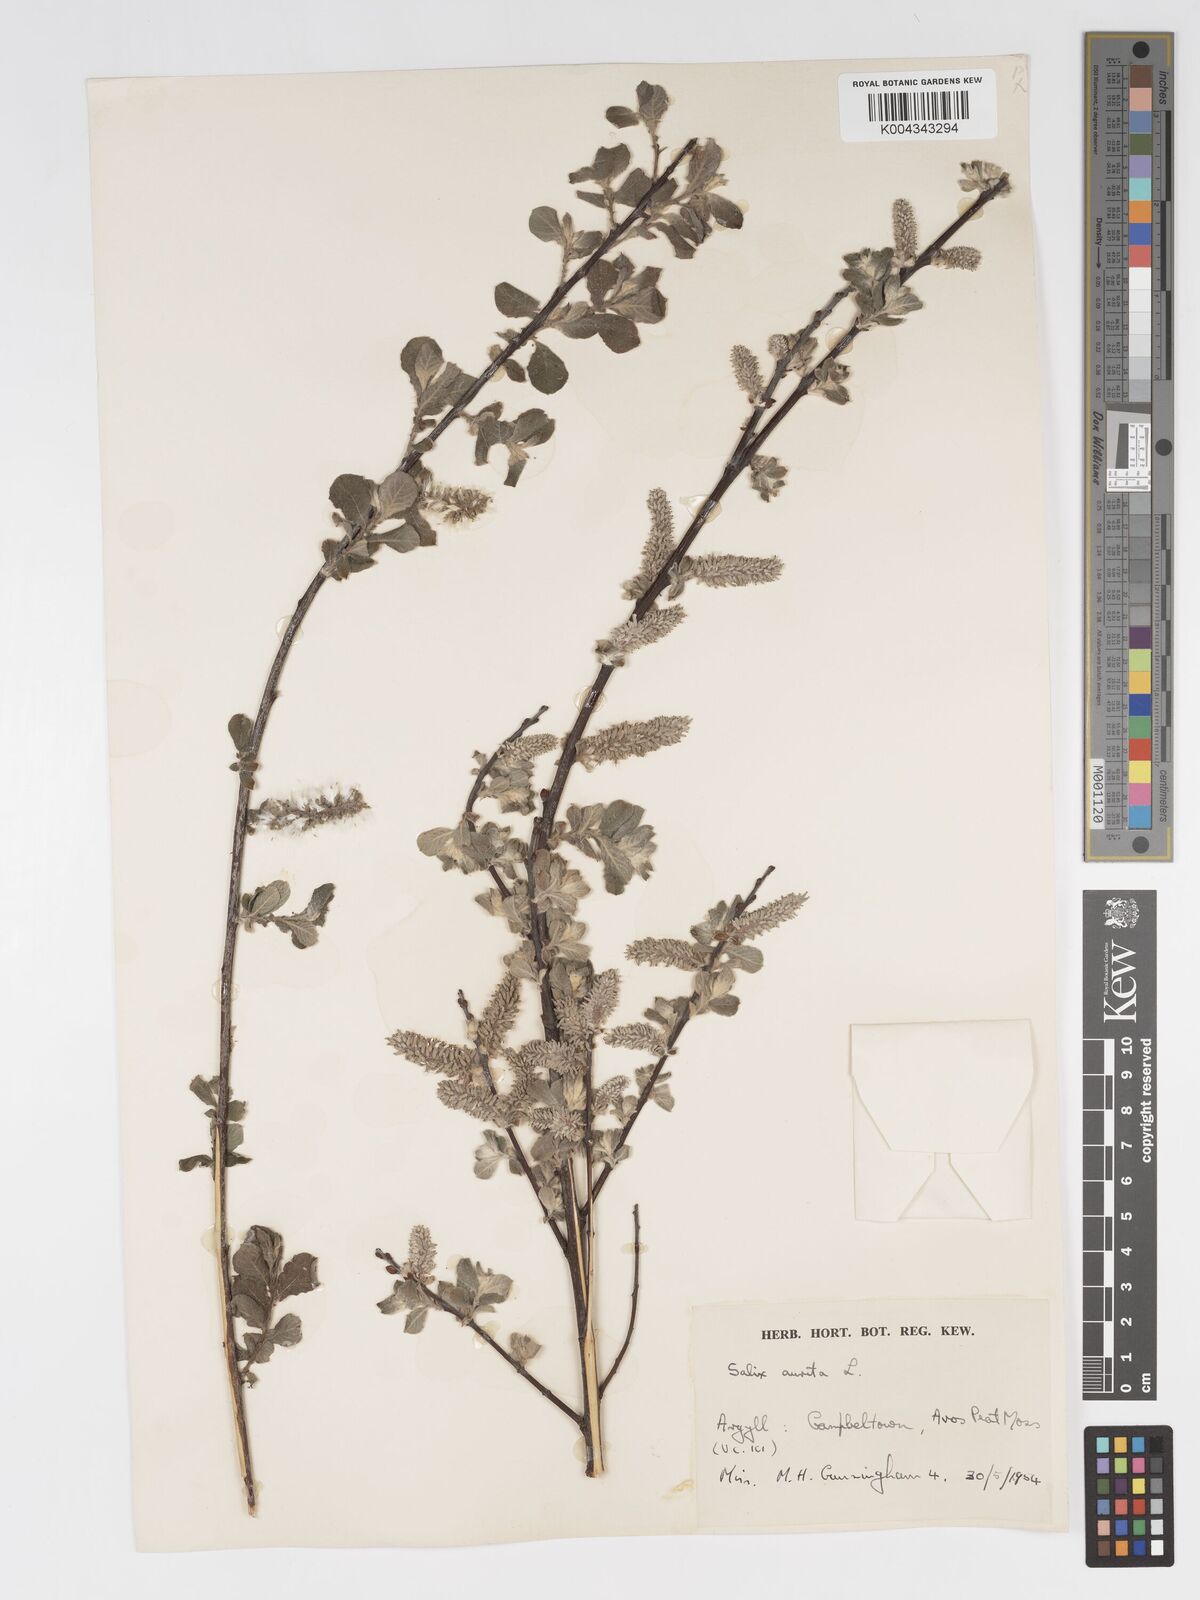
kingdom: Plantae
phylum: Tracheophyta
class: Magnoliopsida
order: Malpighiales
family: Salicaceae
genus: Salix
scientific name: Salix aurita
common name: Eared willow
